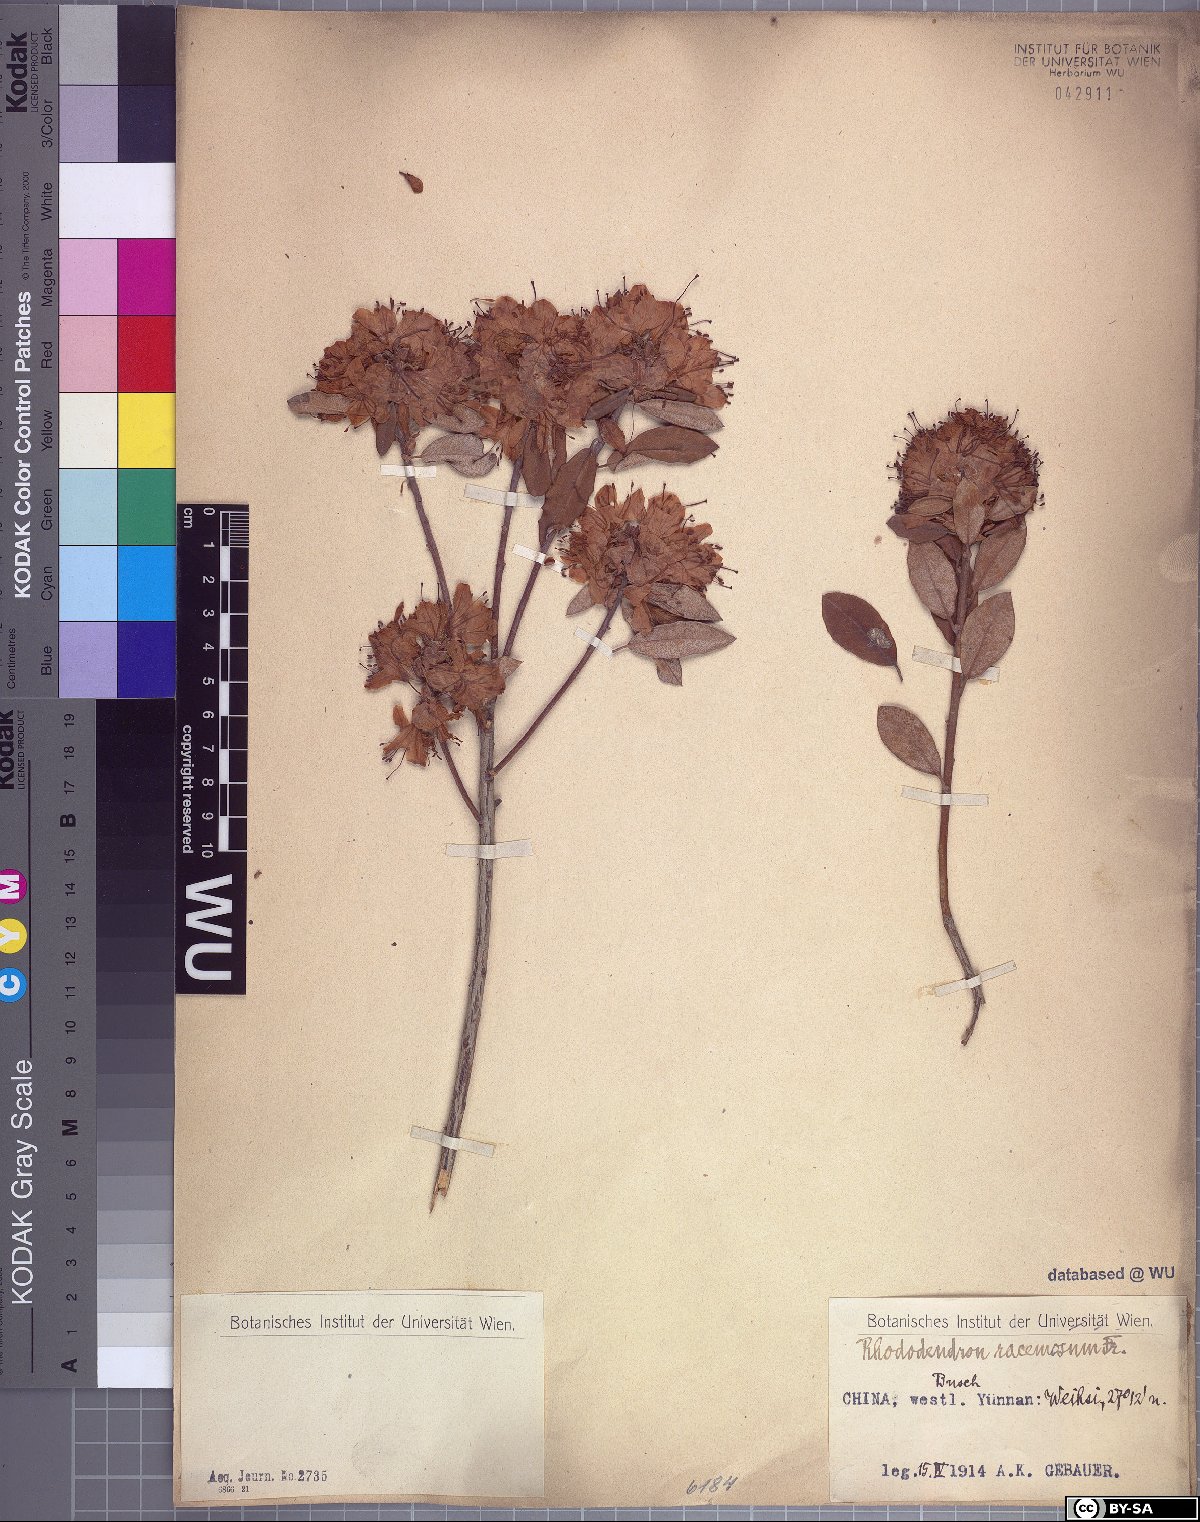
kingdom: Plantae
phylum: Tracheophyta
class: Magnoliopsida
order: Ericales
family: Ericaceae
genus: Rhododendron
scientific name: Rhododendron racemosum
